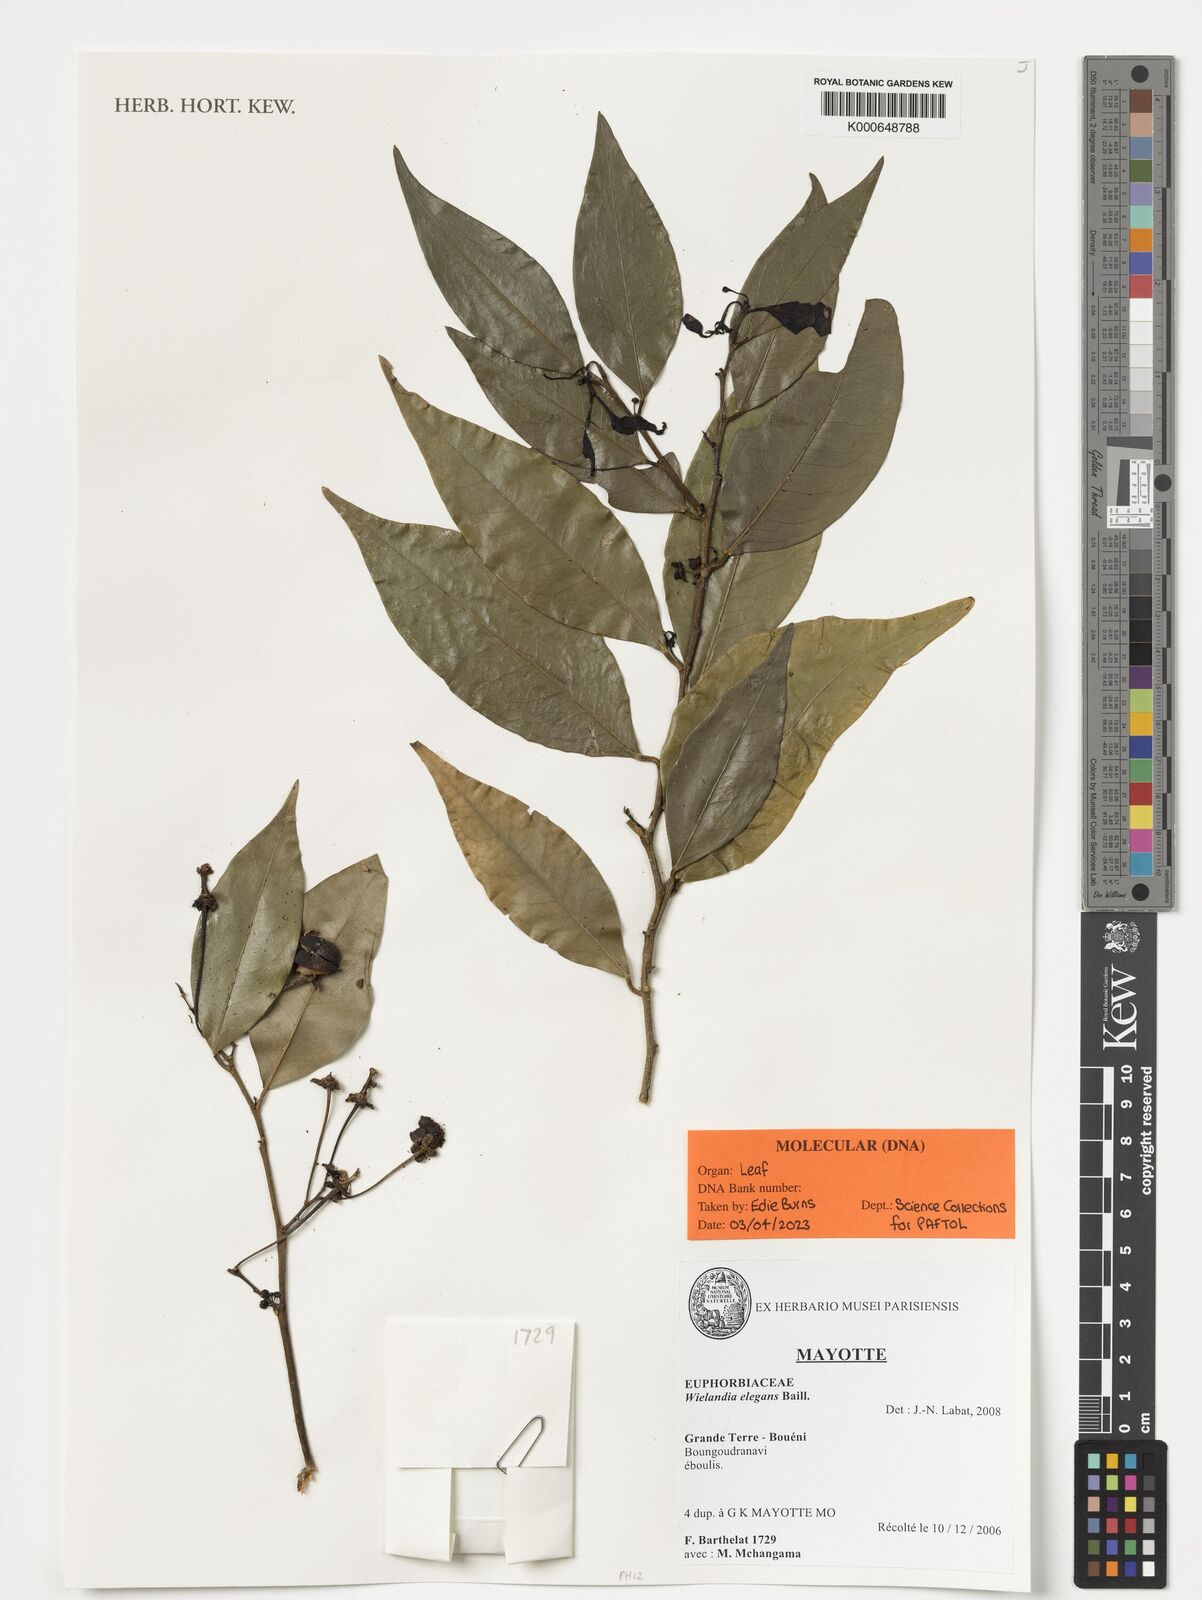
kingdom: Plantae
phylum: Tracheophyta
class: Magnoliopsida
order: Malpighiales
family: Phyllanthaceae
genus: Wielandia
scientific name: Wielandia elegans
